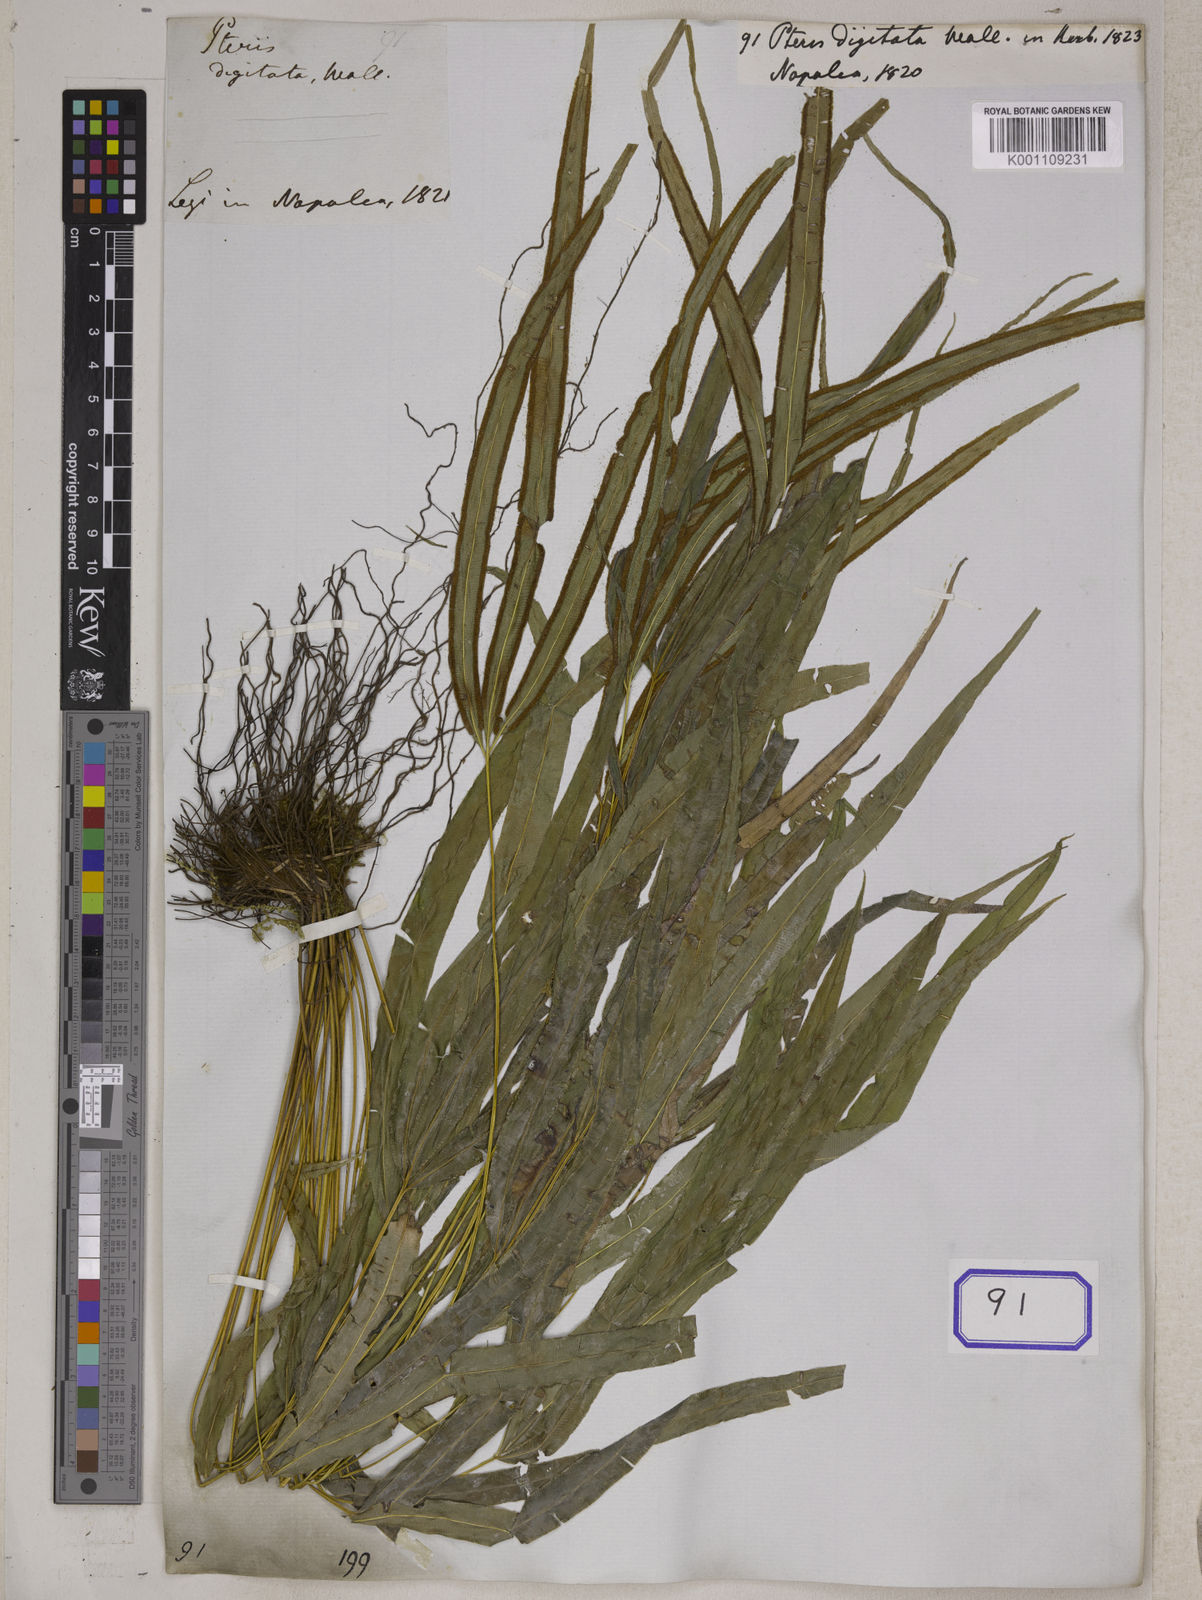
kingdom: Plantae
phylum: Tracheophyta
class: Polypodiopsida
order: Polypodiales
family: Pteridaceae
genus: Pteris
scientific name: Pteris stenophylla
